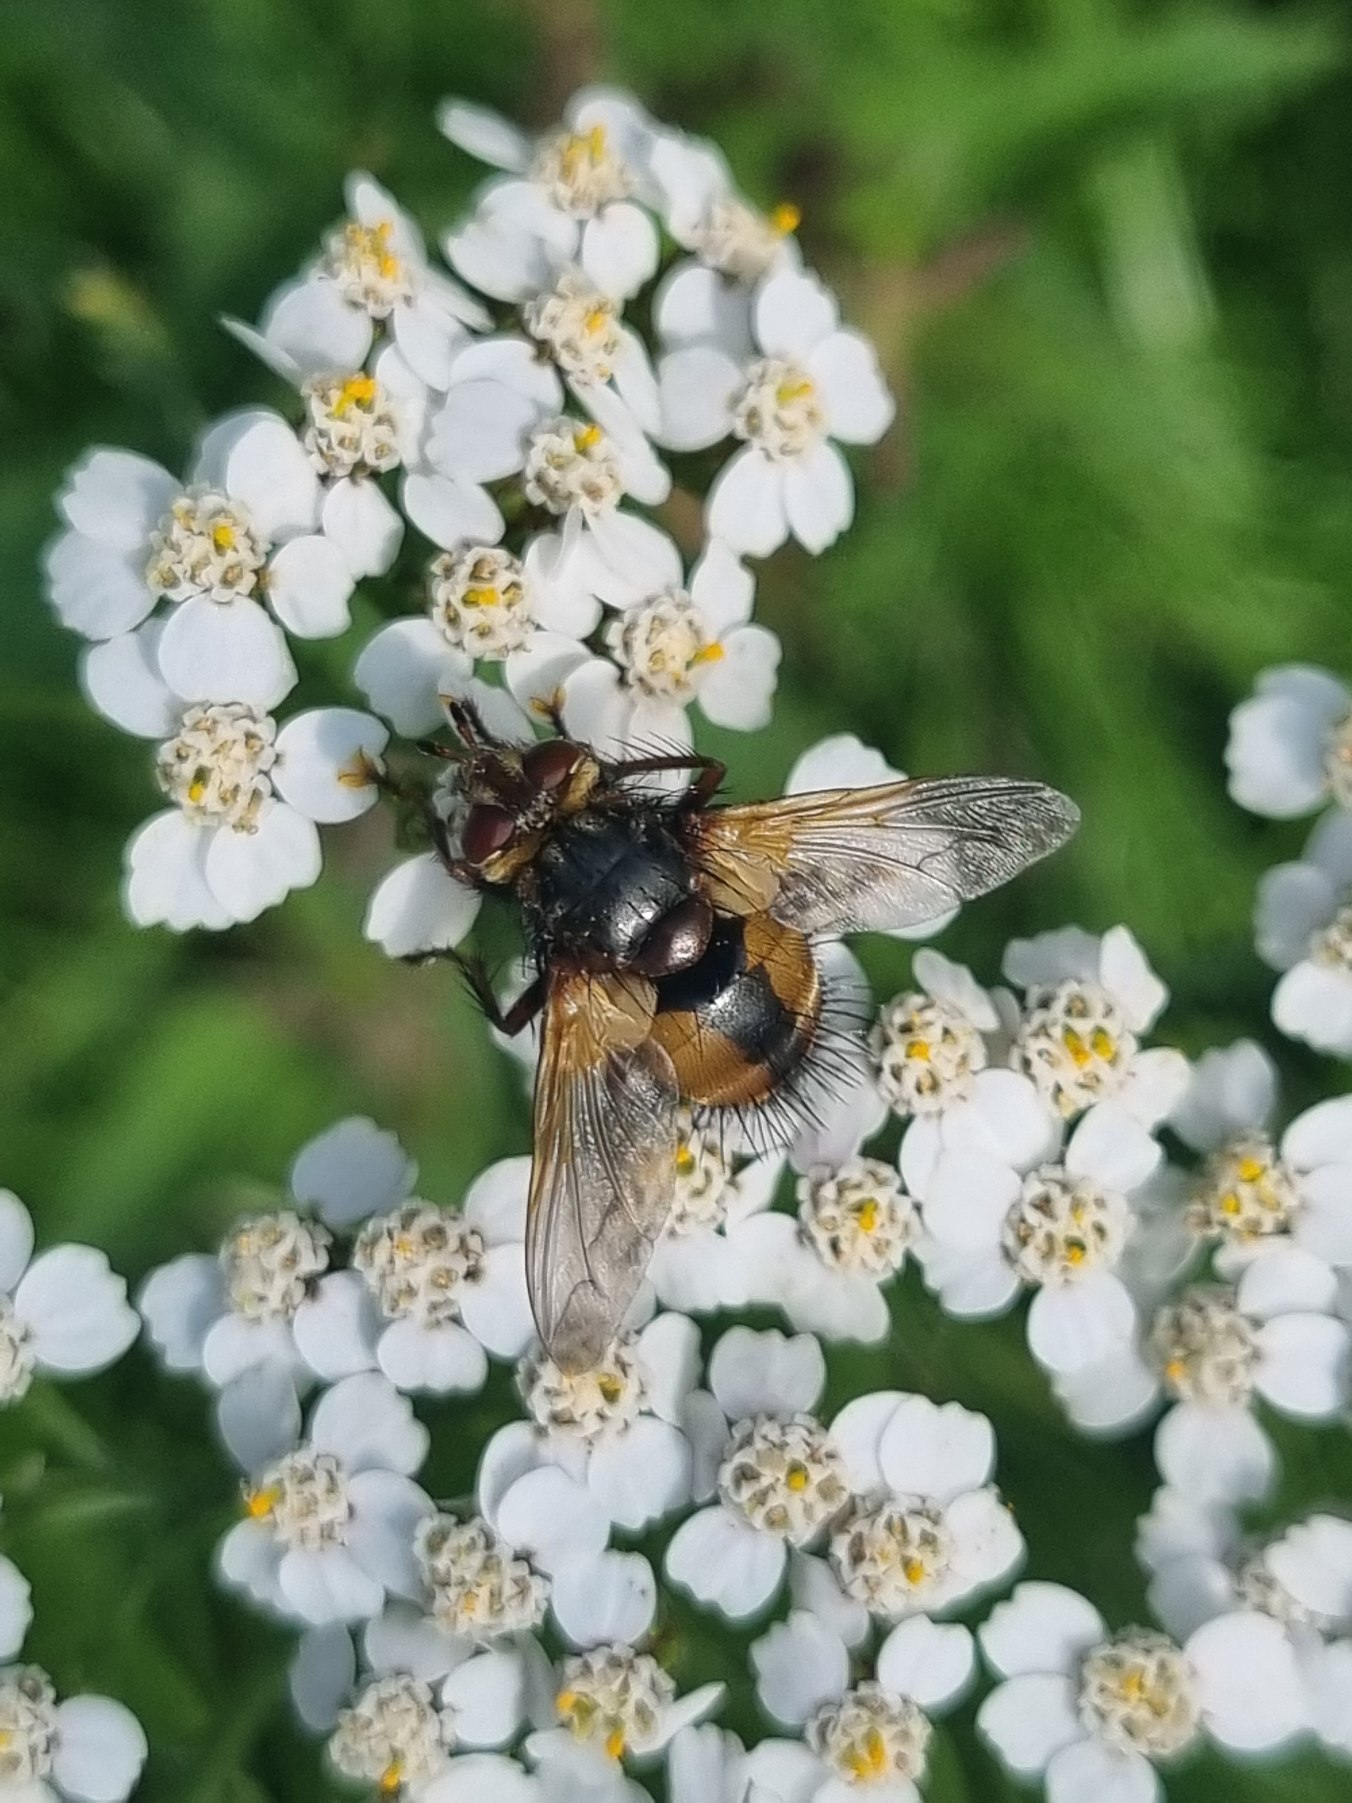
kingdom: Animalia
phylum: Arthropoda
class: Insecta
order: Diptera
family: Tachinidae
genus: Tachina
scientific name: Tachina fera
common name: Mellemfluen oskar
